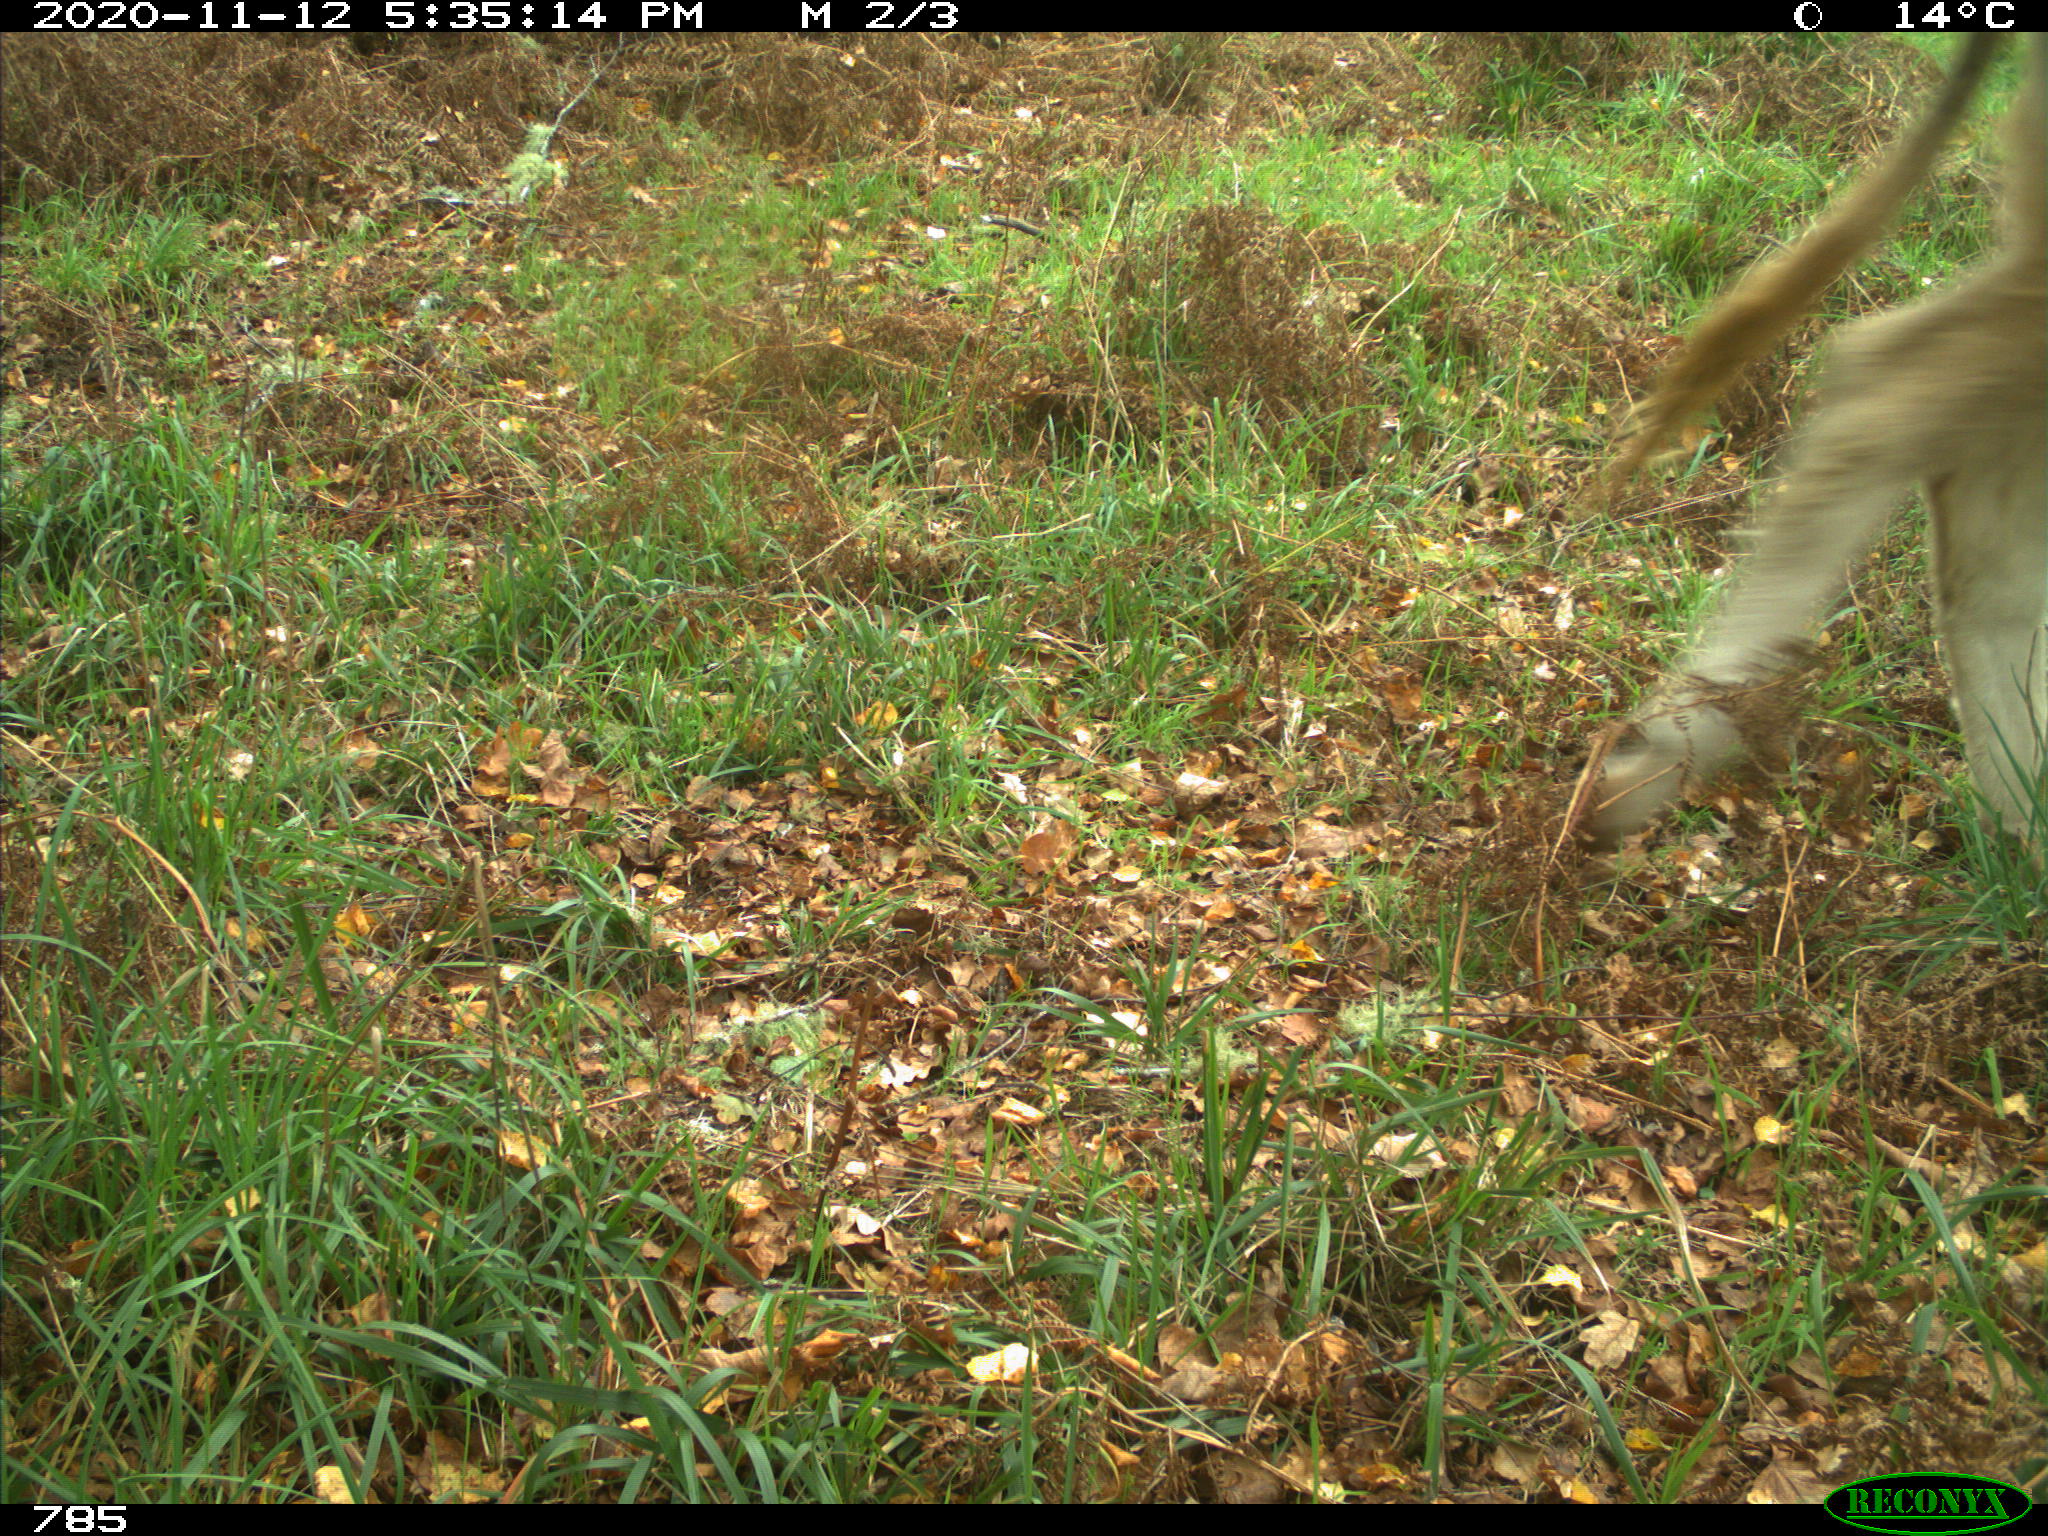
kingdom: Animalia
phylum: Chordata
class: Mammalia
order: Artiodactyla
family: Bovidae
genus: Bos
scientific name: Bos taurus
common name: Domesticated cattle
